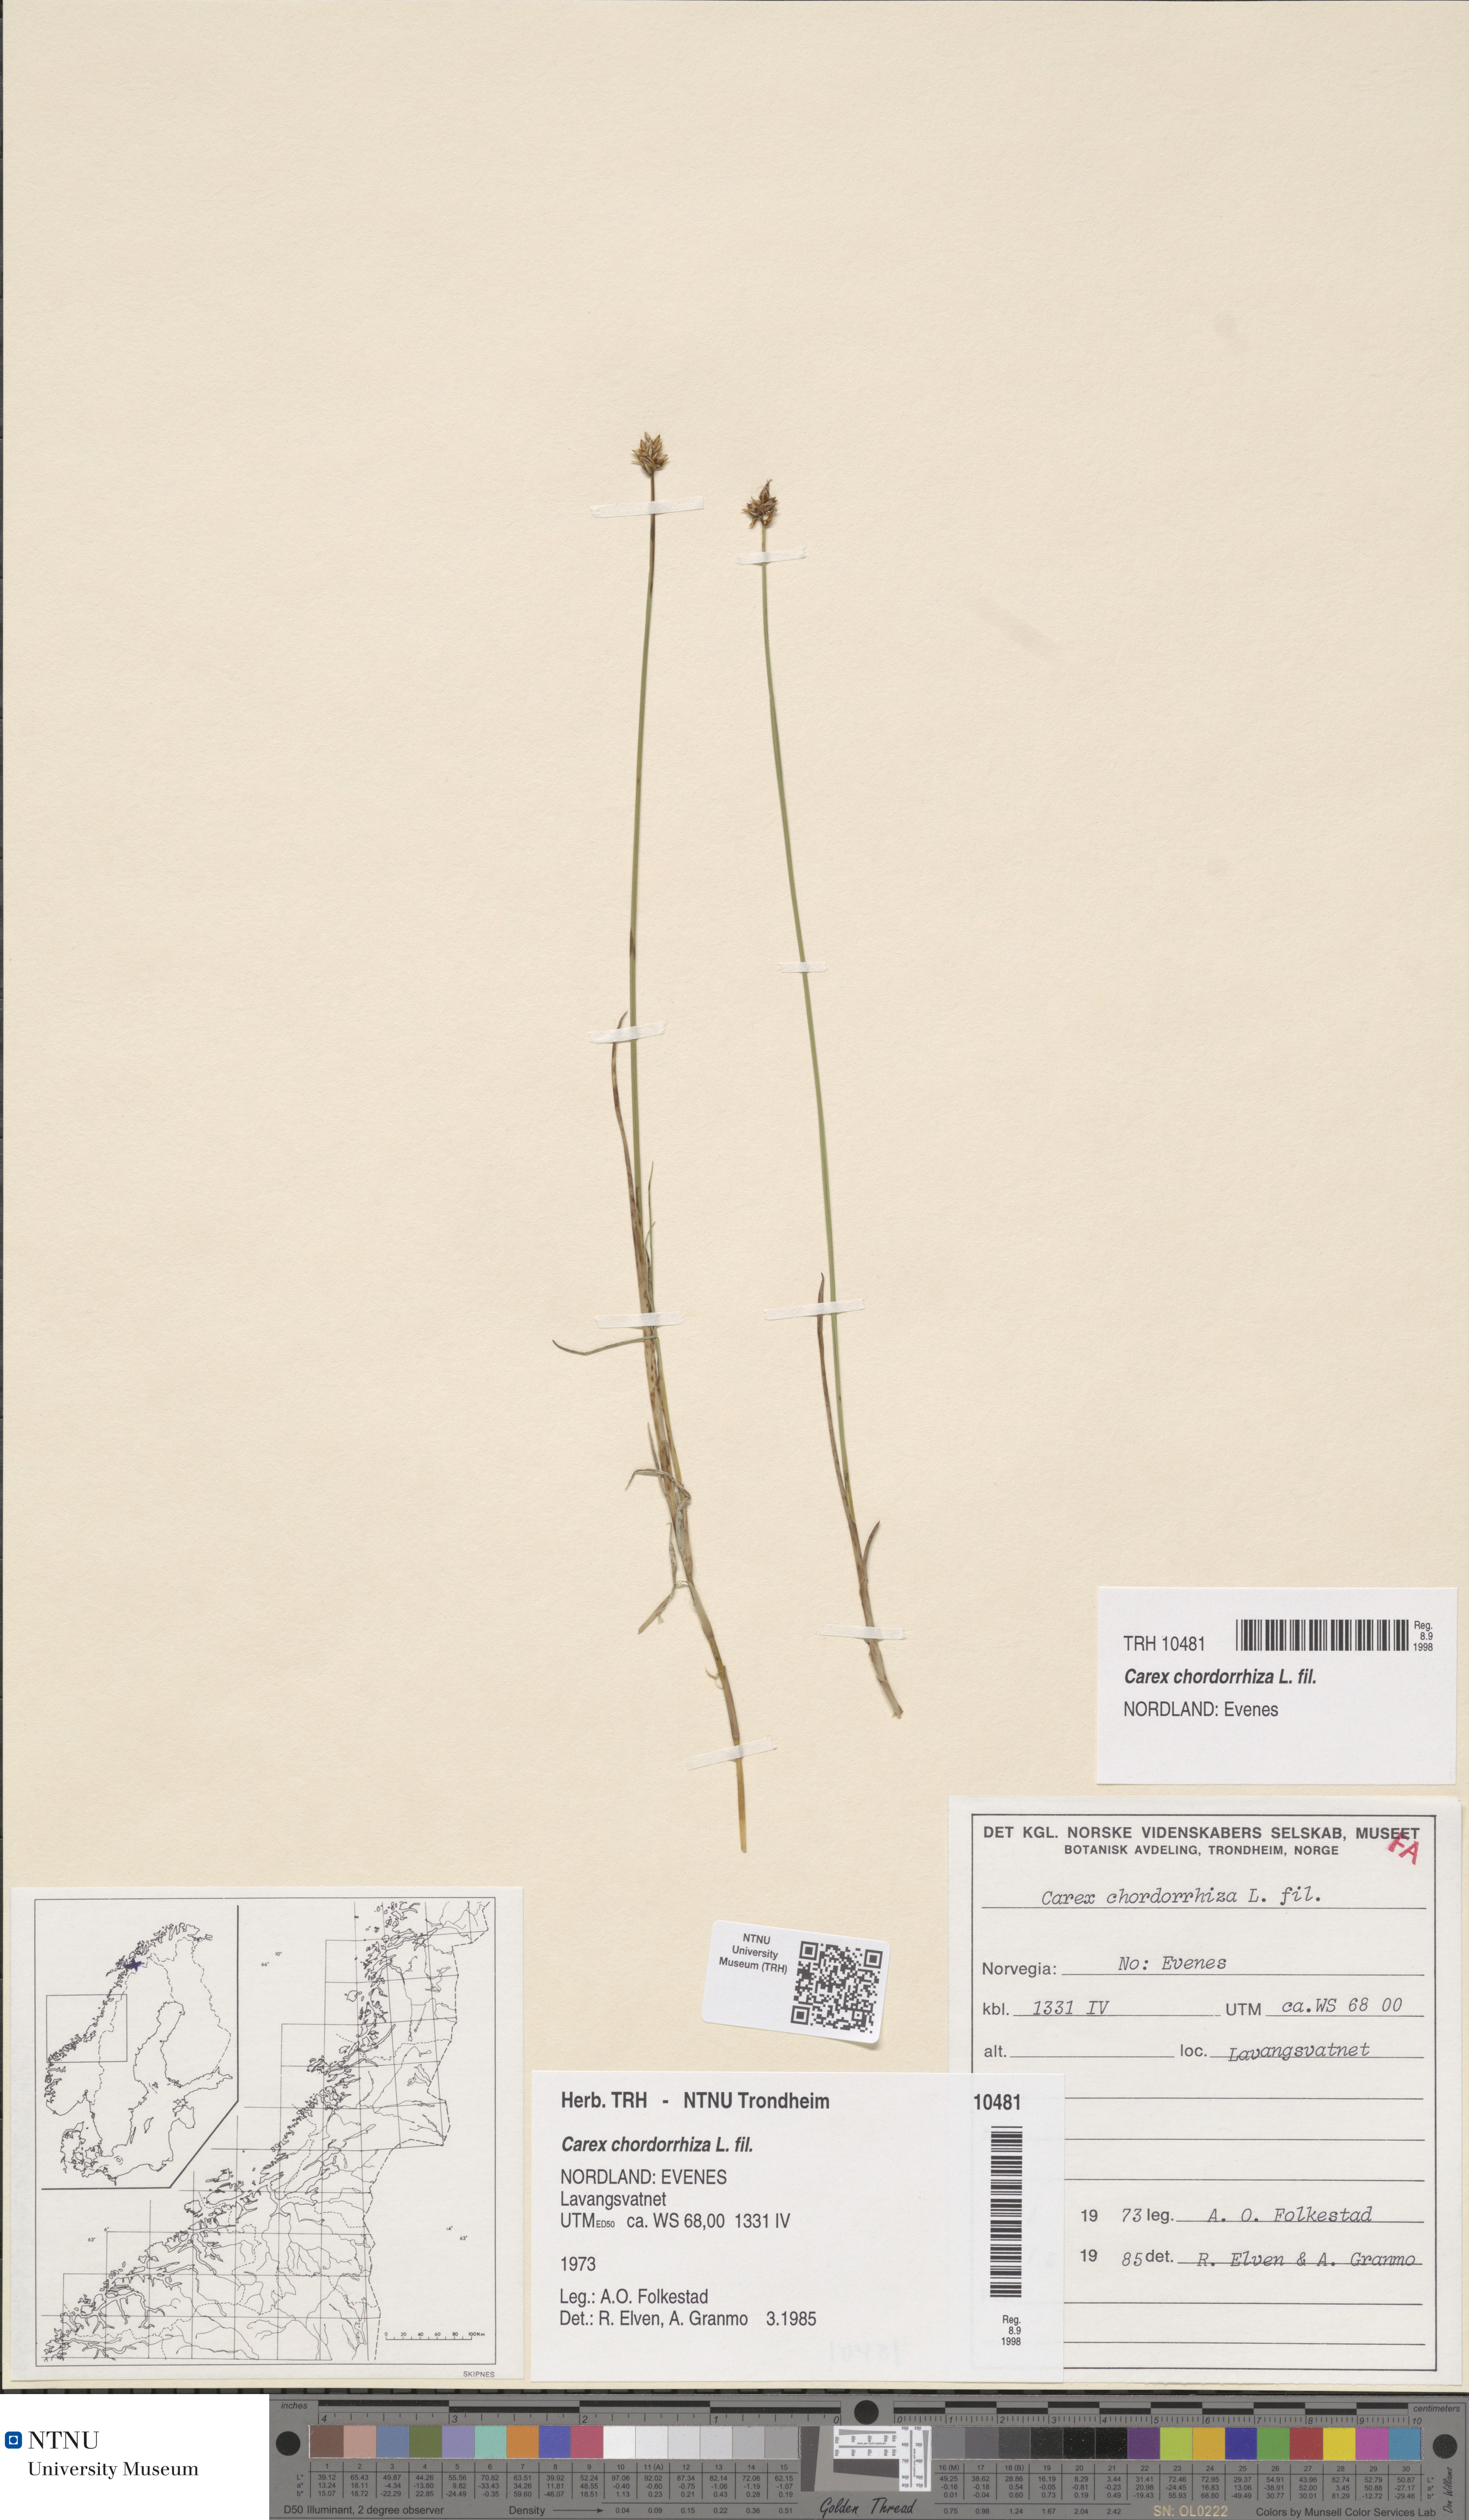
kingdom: Plantae
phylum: Tracheophyta
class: Liliopsida
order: Poales
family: Cyperaceae
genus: Carex
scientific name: Carex chordorrhiza
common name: String sedge
